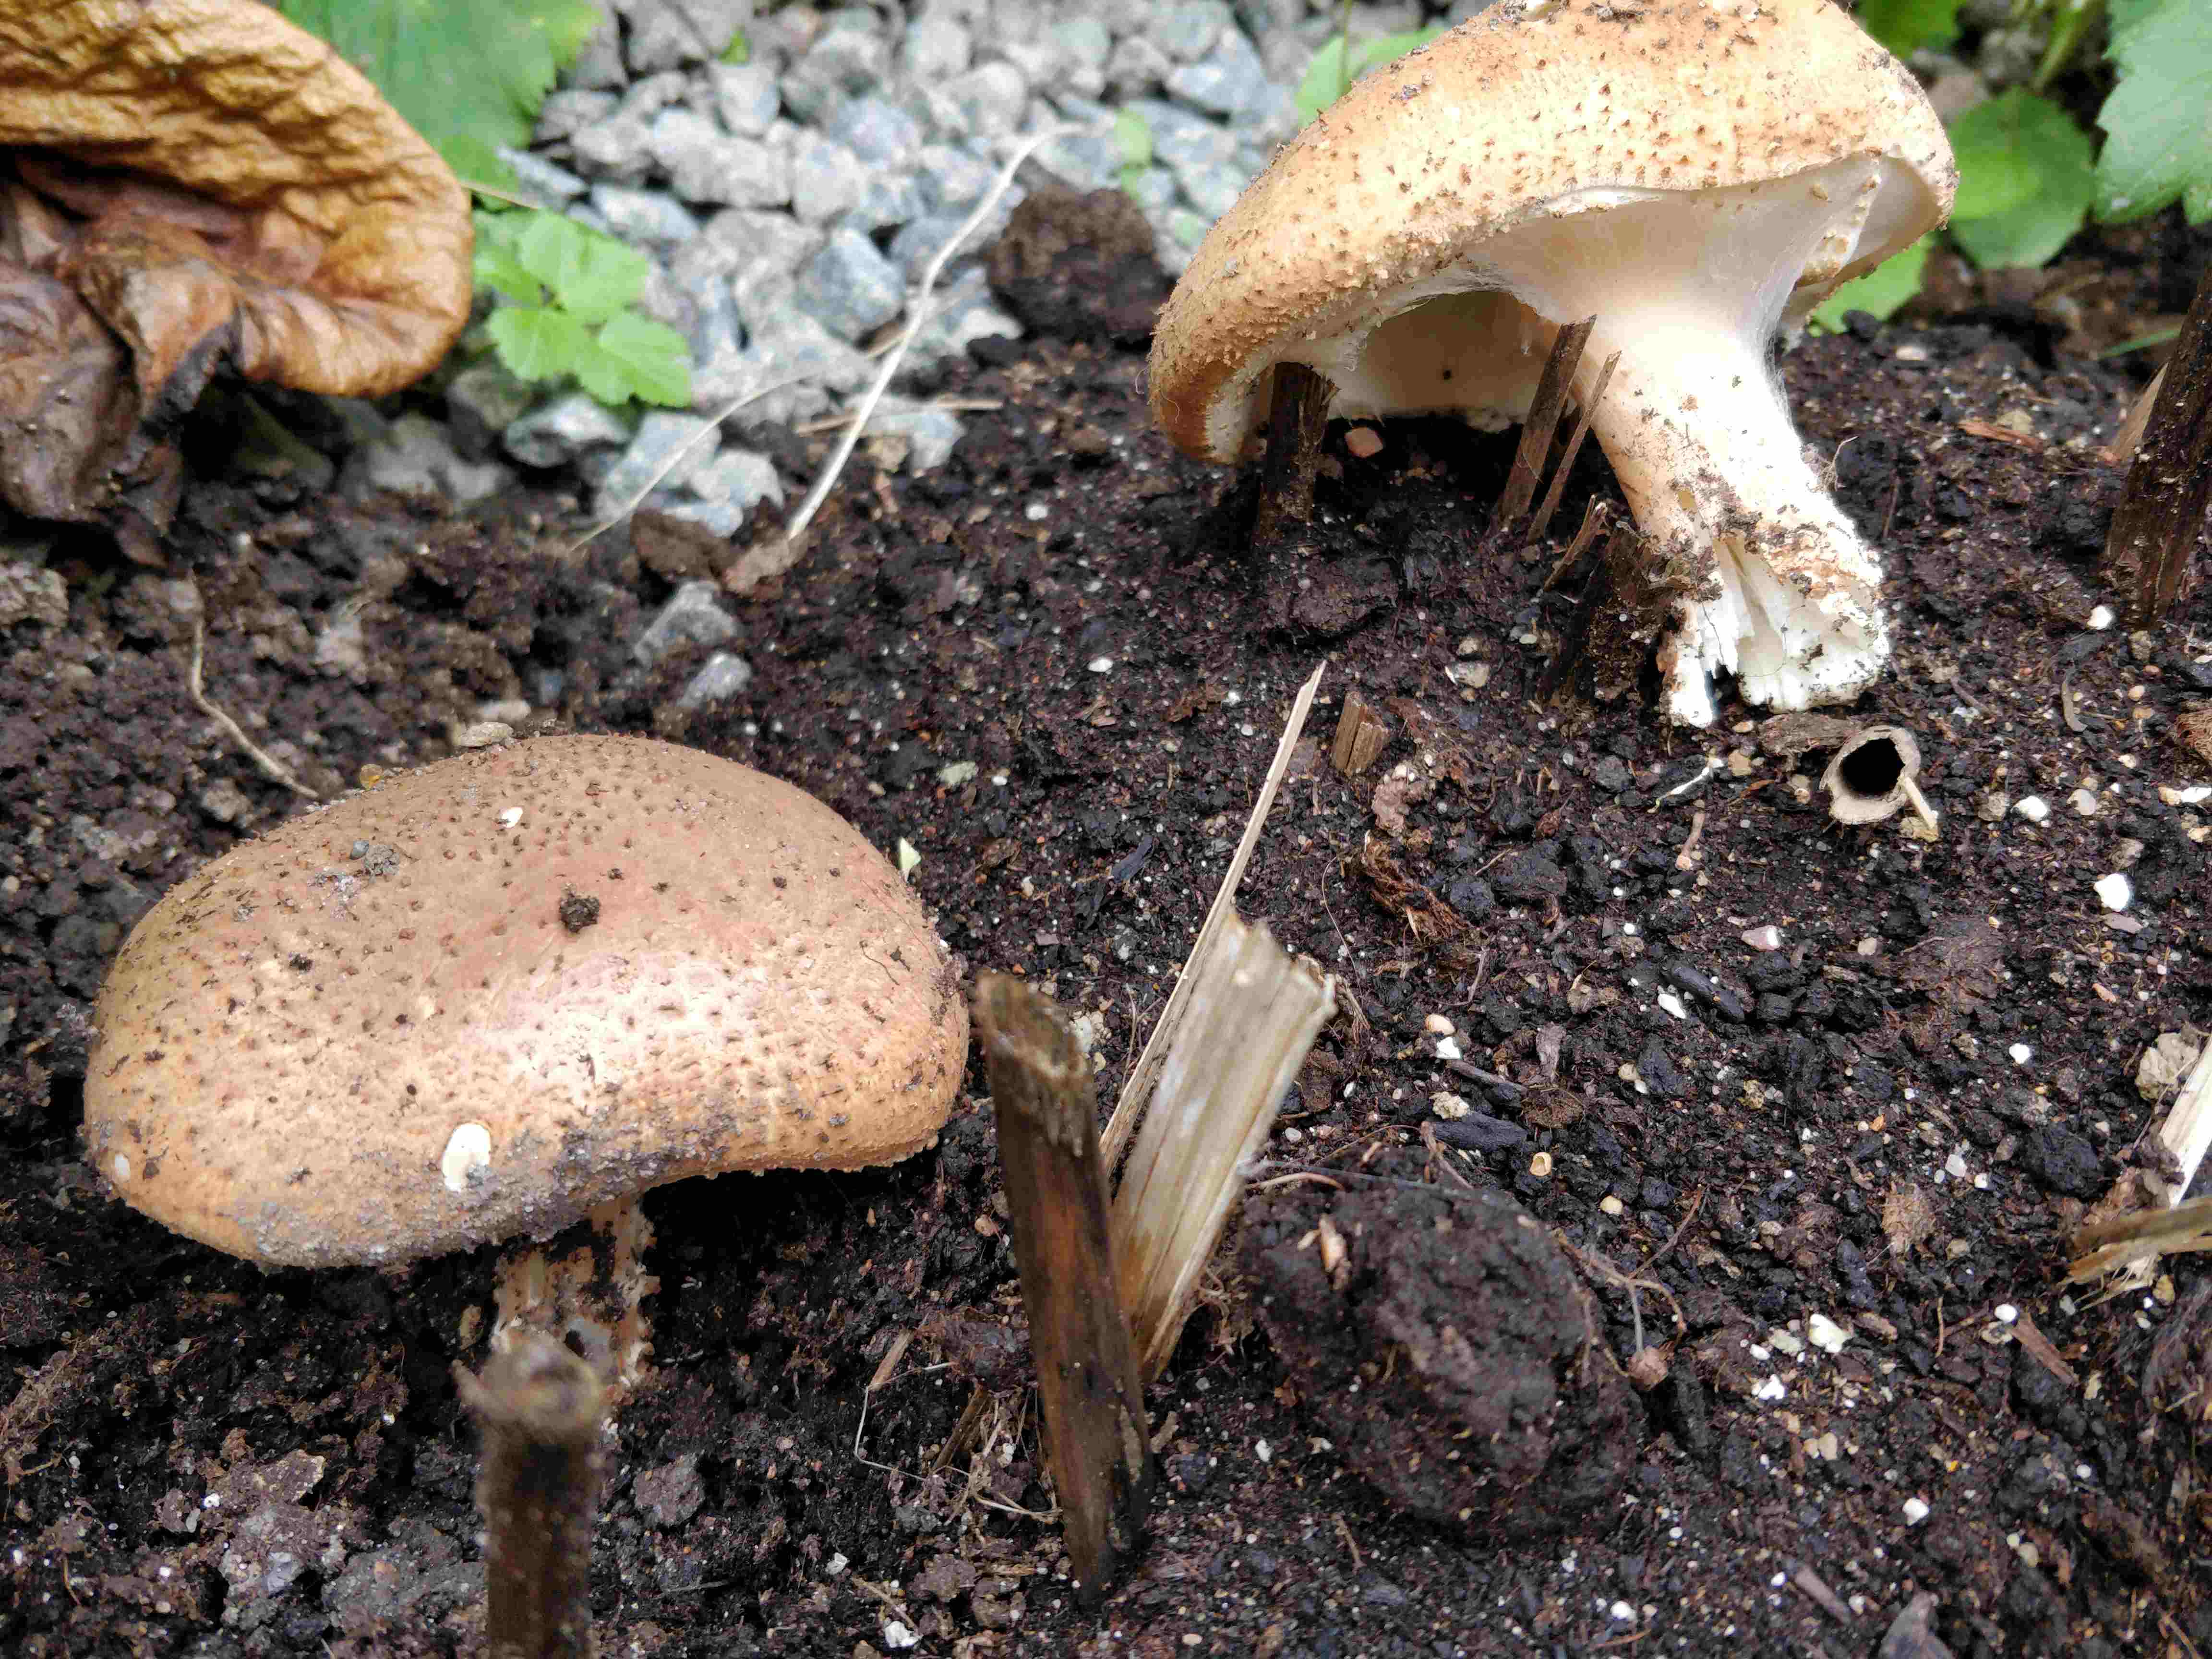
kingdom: Fungi
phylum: Basidiomycota
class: Agaricomycetes
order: Agaricales
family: Agaricaceae
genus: Echinoderma
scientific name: Echinoderma asperum
